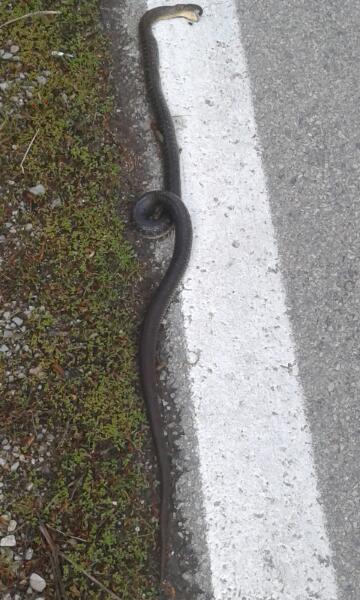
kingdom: Animalia
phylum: Chordata
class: Squamata
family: Colubridae
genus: Zamenis
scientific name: Zamenis longissimus
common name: Aesculapean snake
